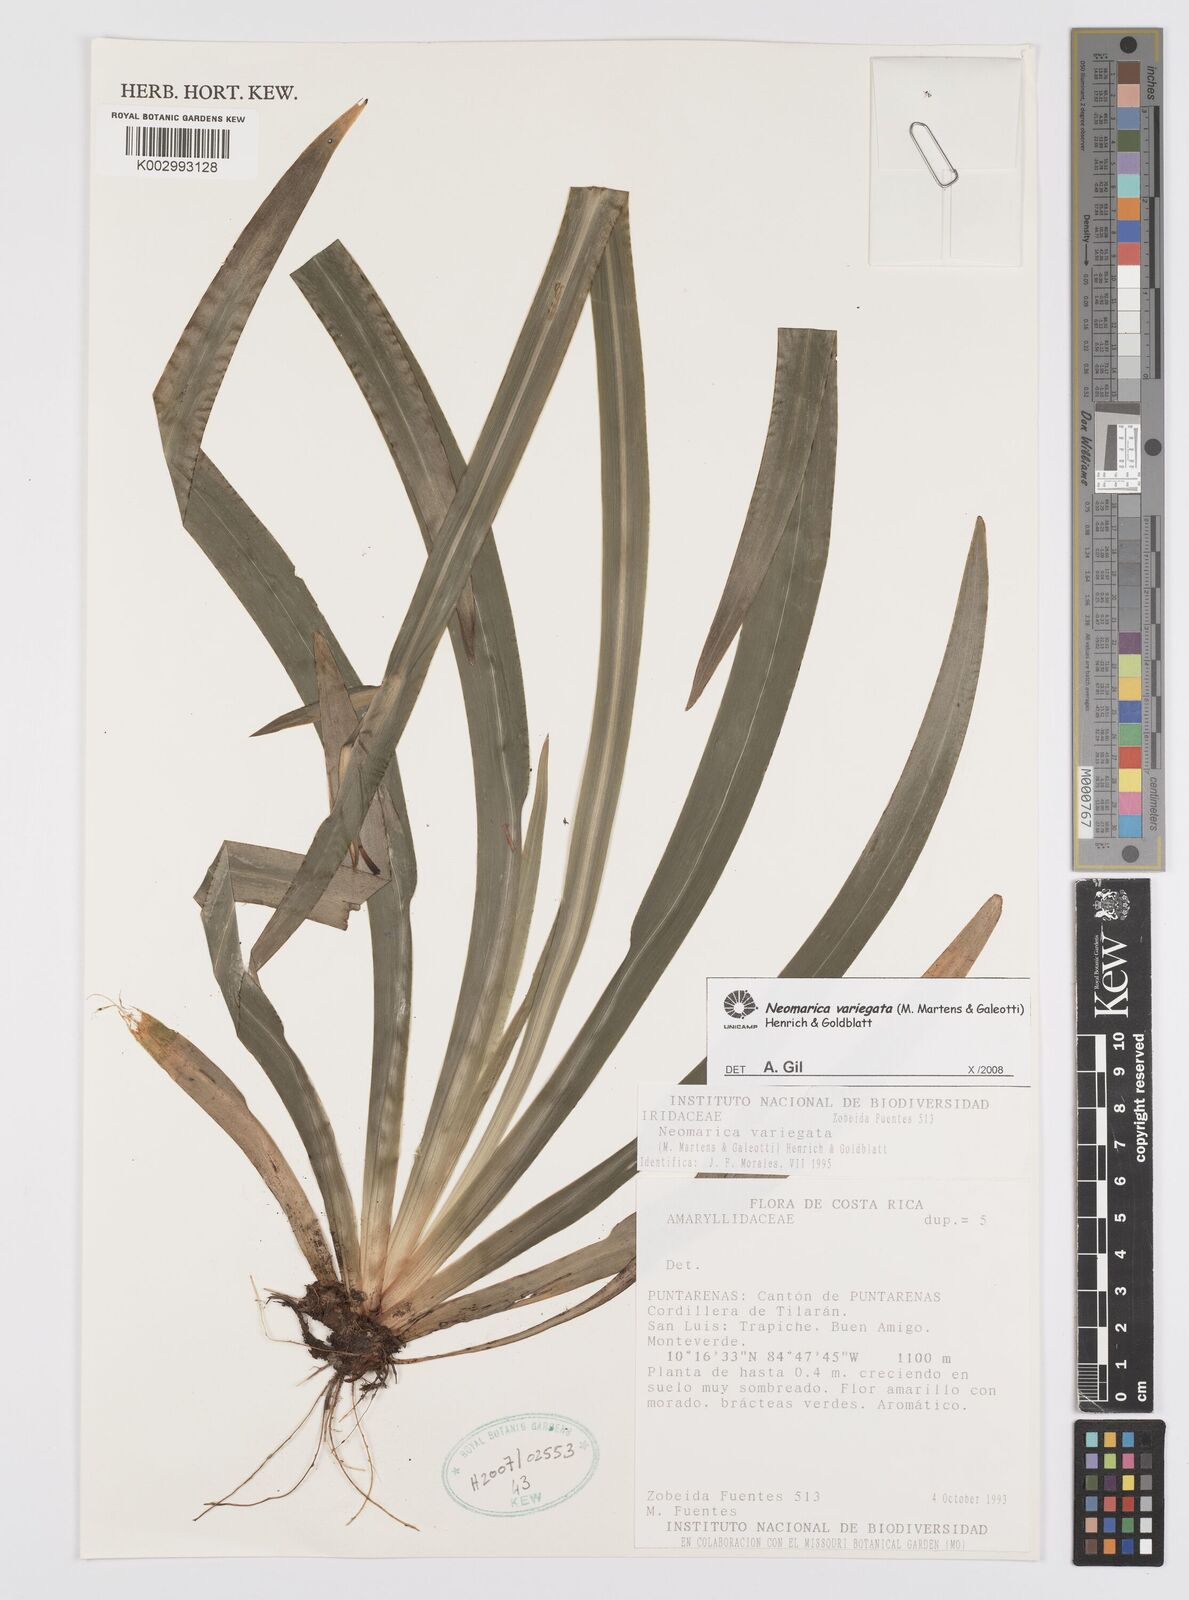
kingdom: Plantae
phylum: Tracheophyta
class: Liliopsida
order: Asparagales
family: Iridaceae
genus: Trimezia
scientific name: Trimezia variegata
